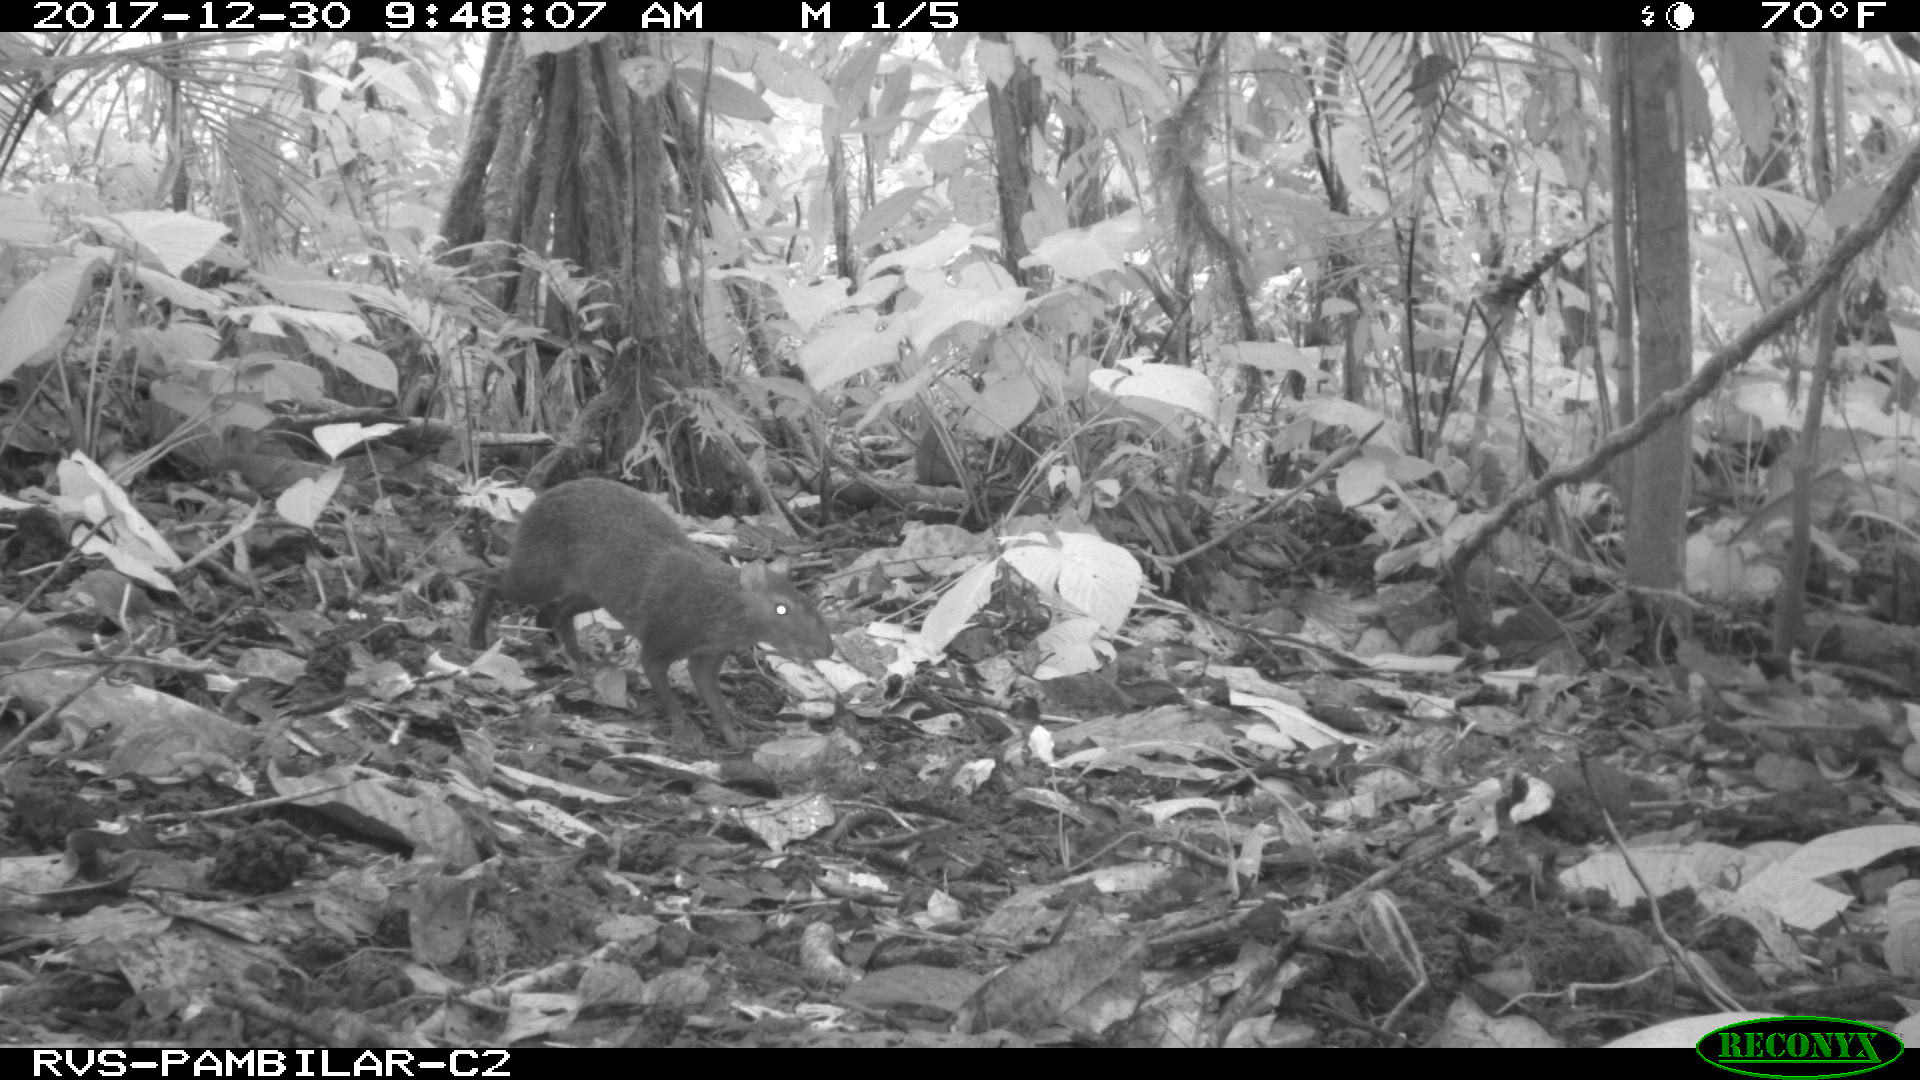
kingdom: Animalia
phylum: Chordata
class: Mammalia
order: Rodentia
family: Dasyproctidae
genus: Dasyprocta
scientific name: Dasyprocta punctata
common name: Central american agouti
